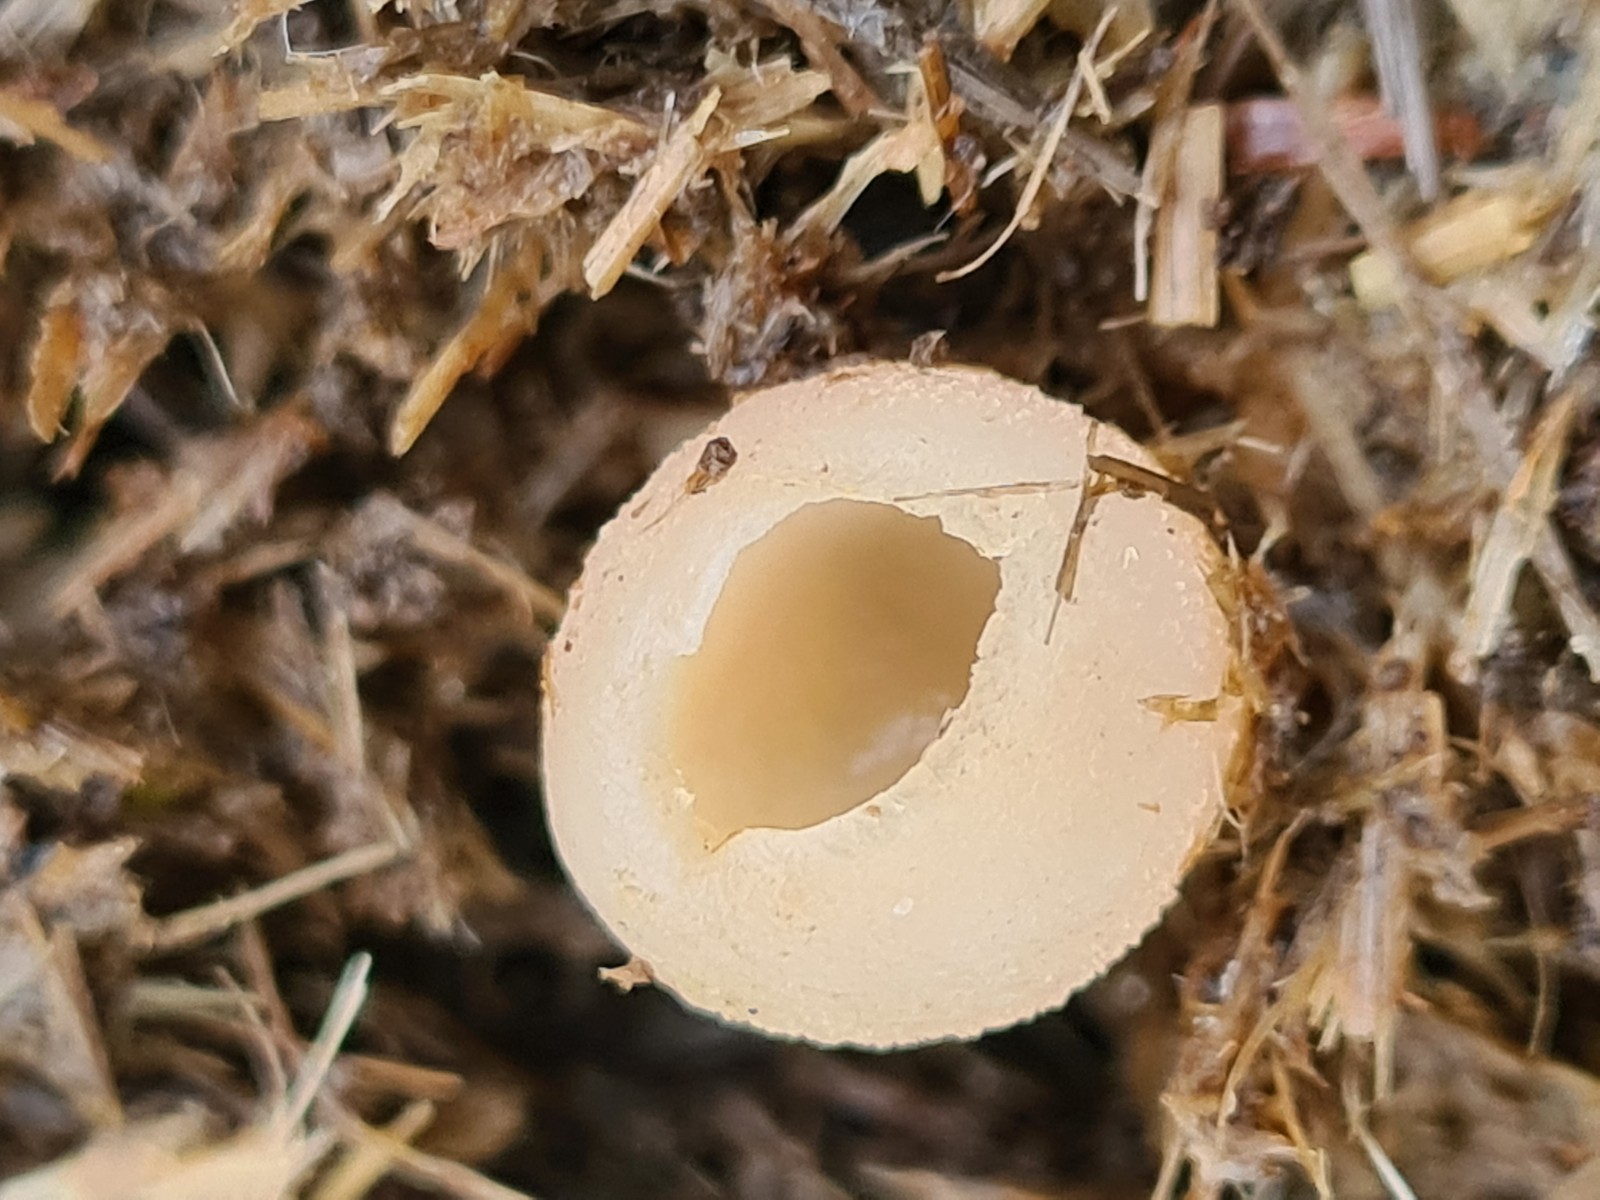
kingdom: Fungi
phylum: Ascomycota
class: Pezizomycetes
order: Pezizales
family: Pezizaceae
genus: Peziza
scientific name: Peziza
